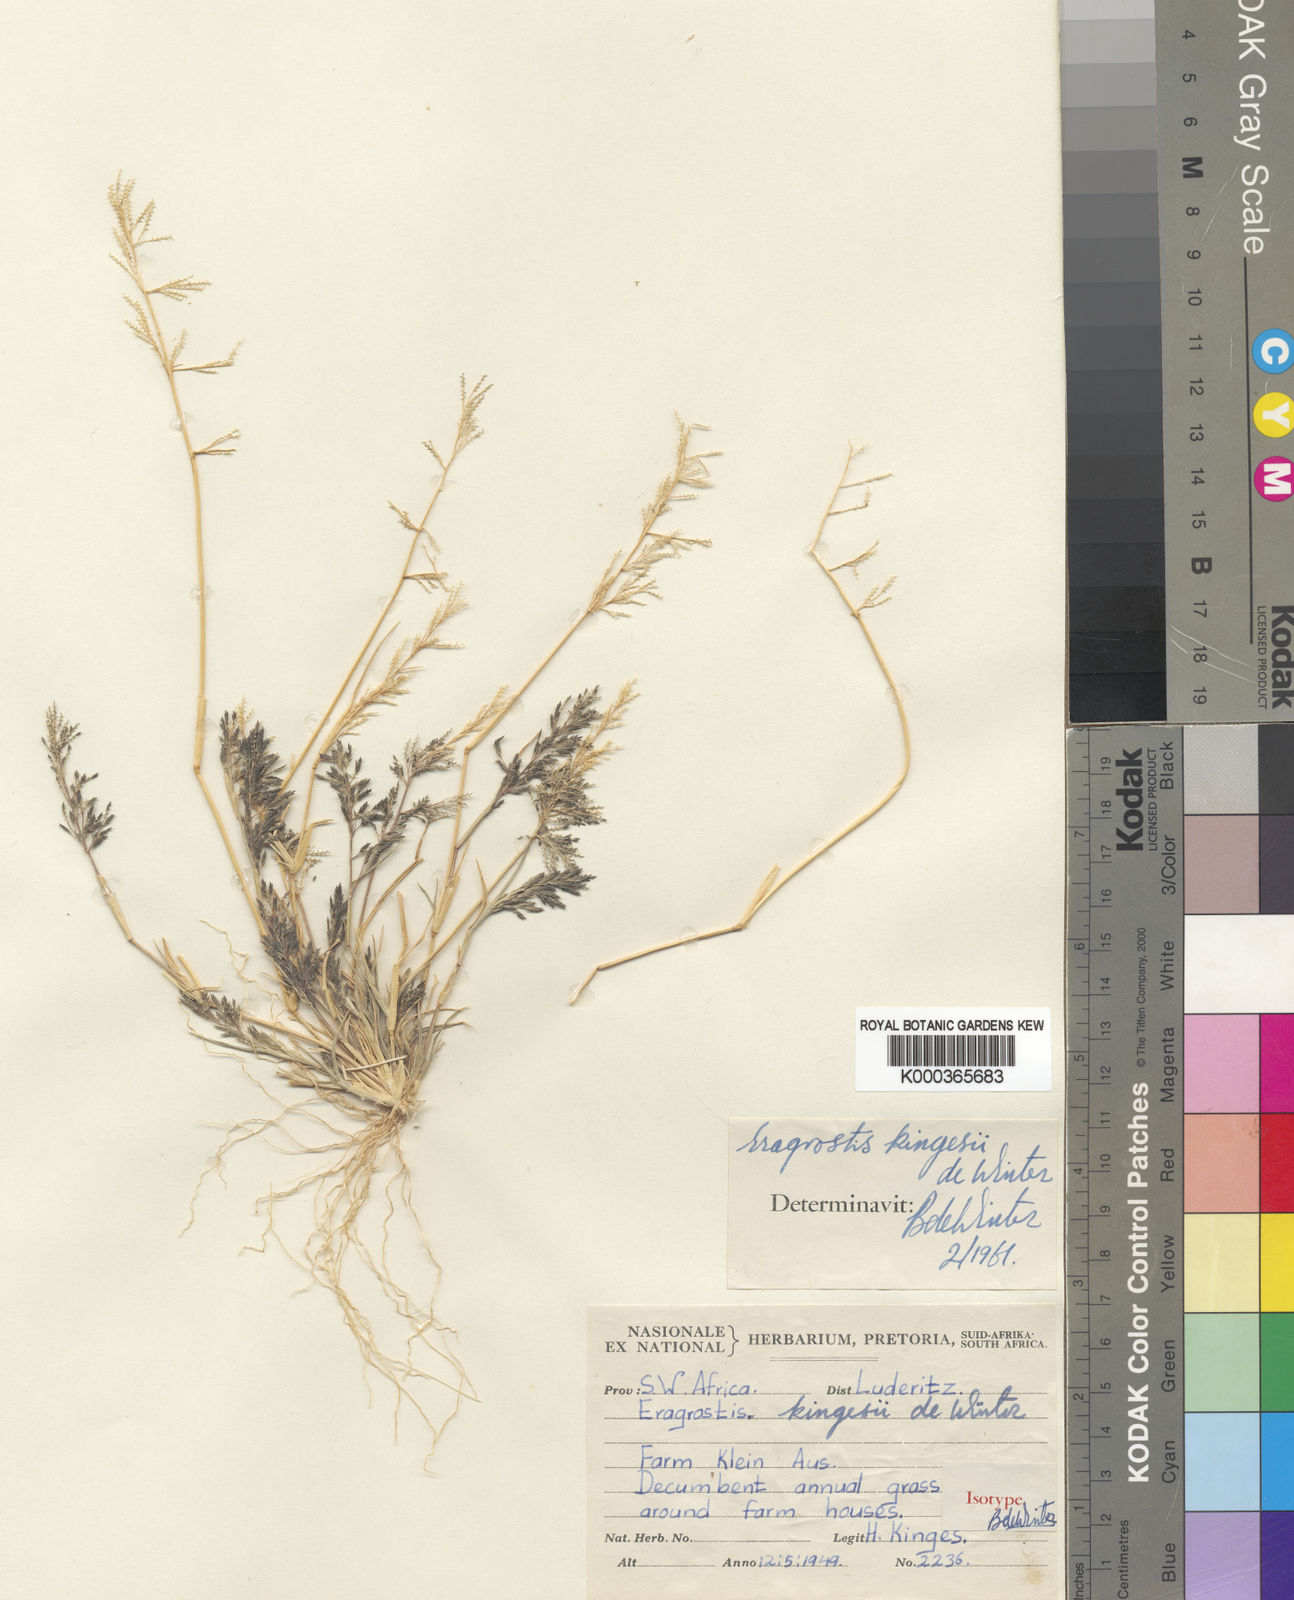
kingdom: Plantae
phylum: Tracheophyta
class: Liliopsida
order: Poales
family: Poaceae
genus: Eragrostis
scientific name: Eragrostis kingesii
